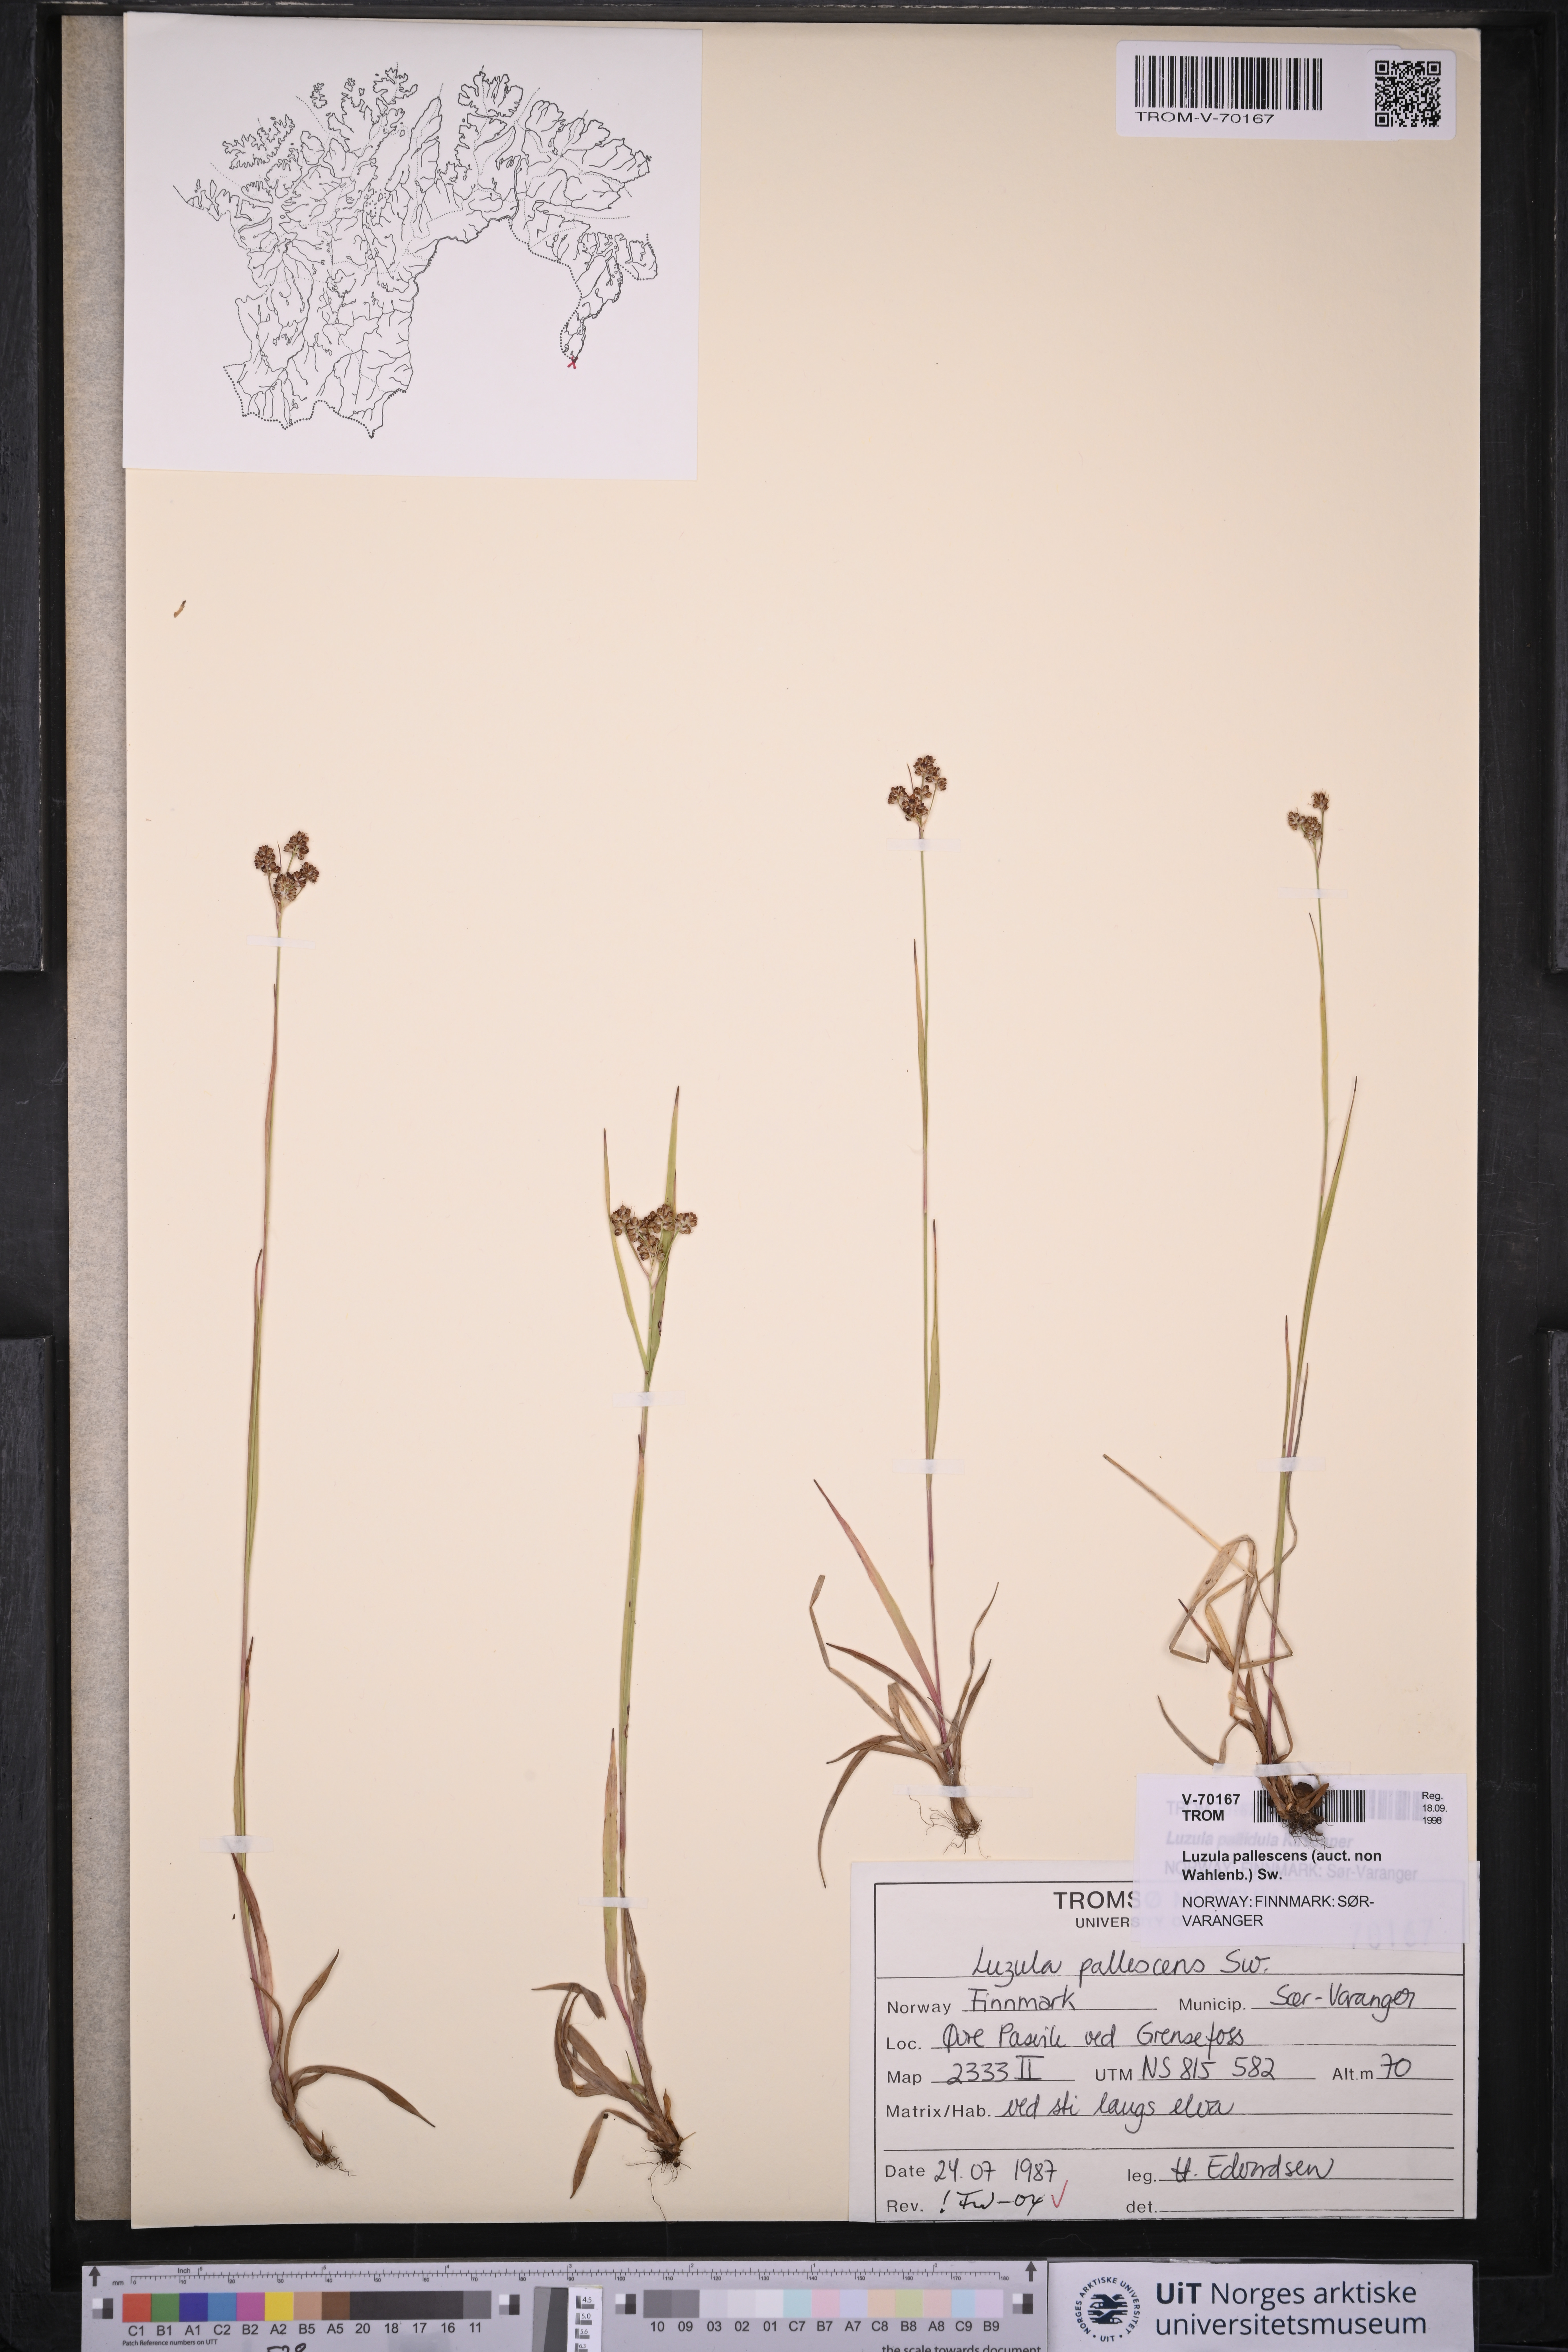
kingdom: Plantae
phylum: Tracheophyta
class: Liliopsida
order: Poales
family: Juncaceae
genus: Luzula
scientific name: Luzula pallescens
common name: Fen wood-rush
